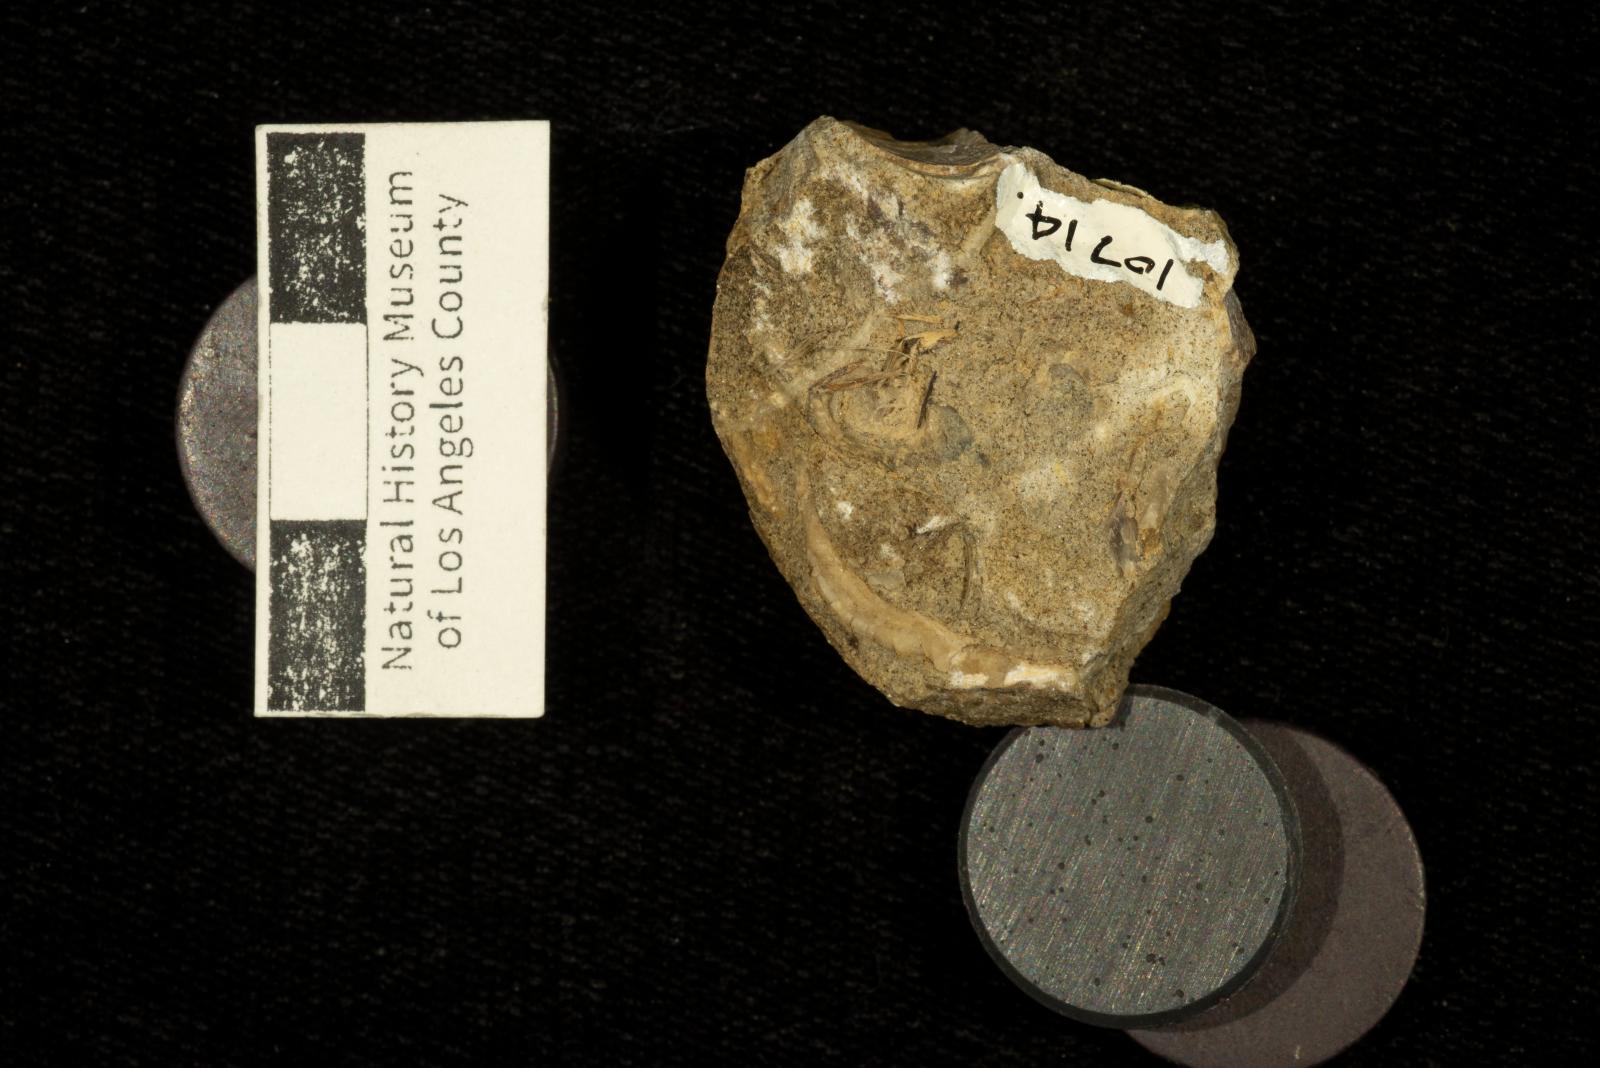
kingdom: Animalia
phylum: Mollusca
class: Bivalvia
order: Myalinida
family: Inoceramidae
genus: Cataceramus
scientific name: Cataceramus
